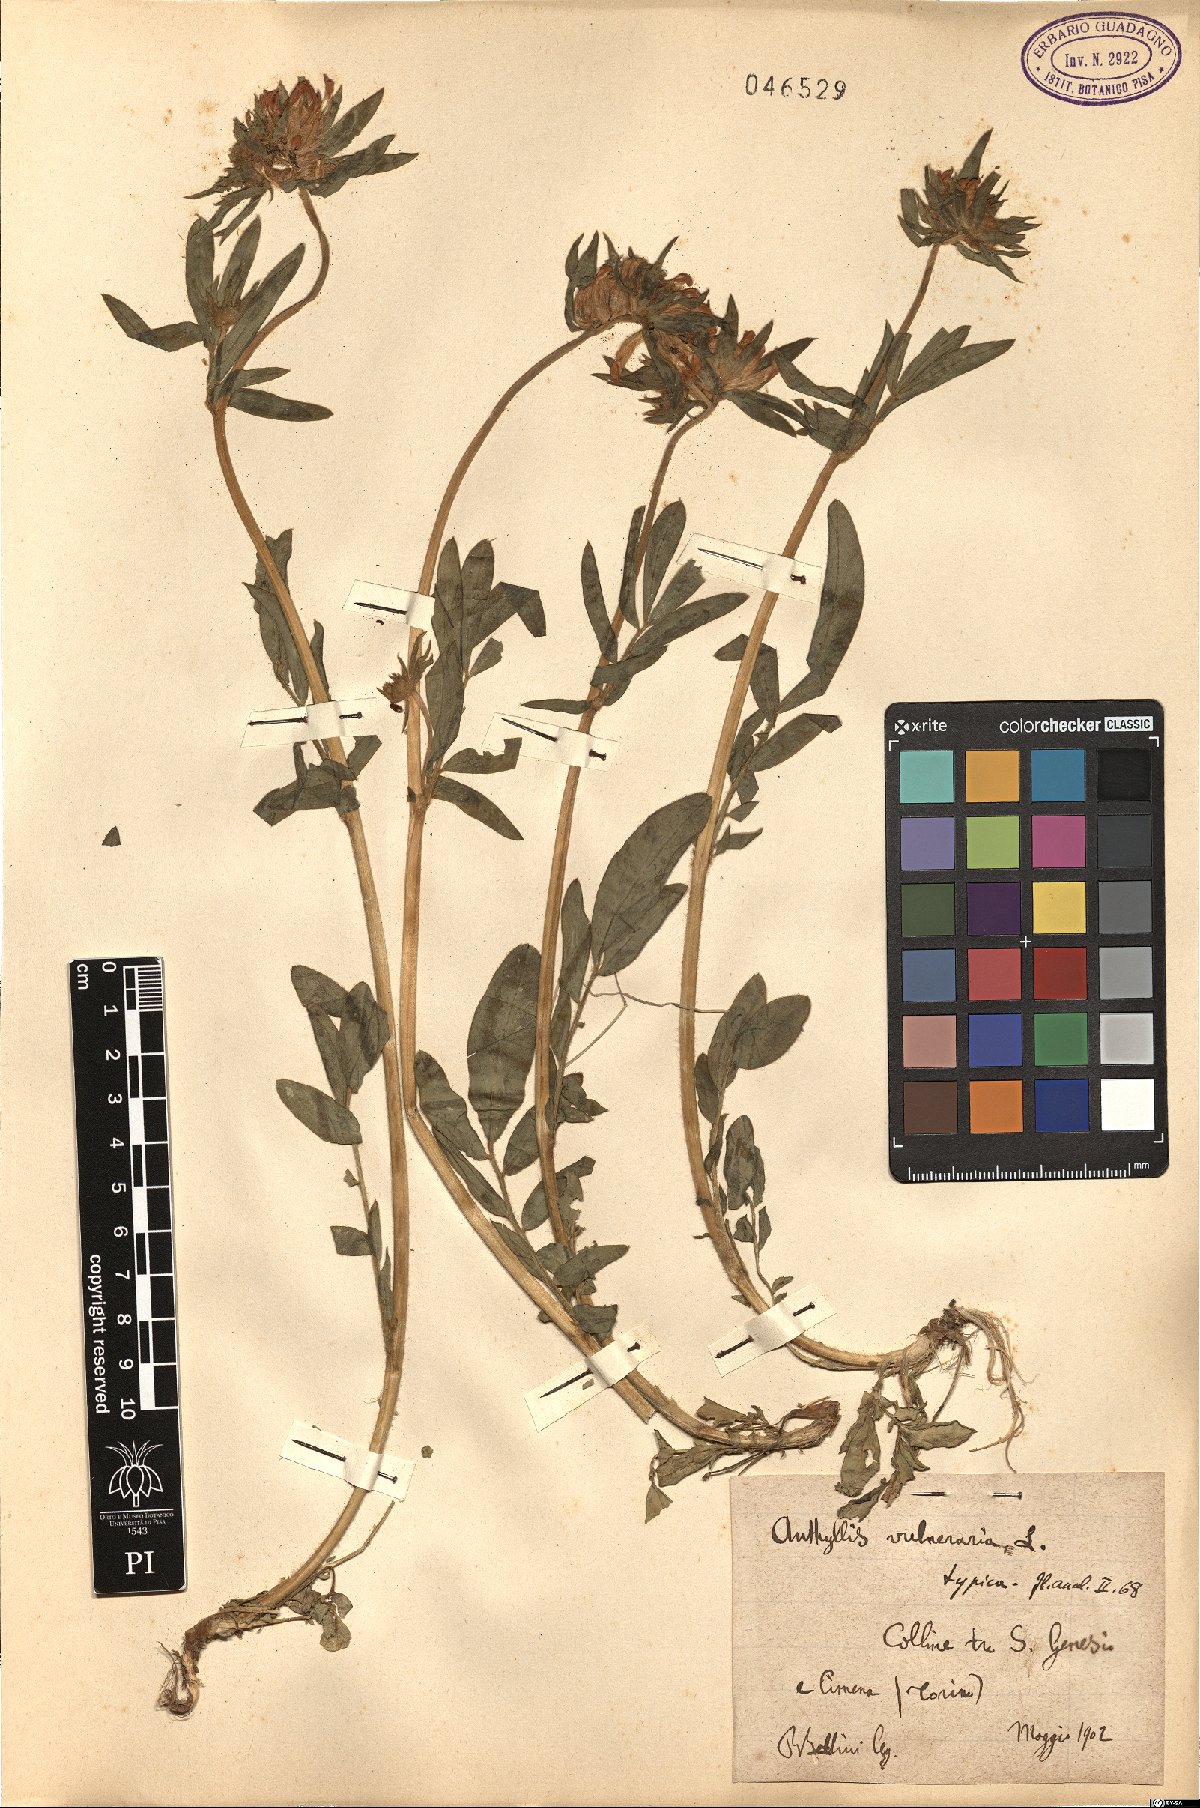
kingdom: Plantae
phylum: Tracheophyta
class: Magnoliopsida
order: Fabales
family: Fabaceae
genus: Anthyllis
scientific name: Anthyllis vulneraria
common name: Kidney vetch
